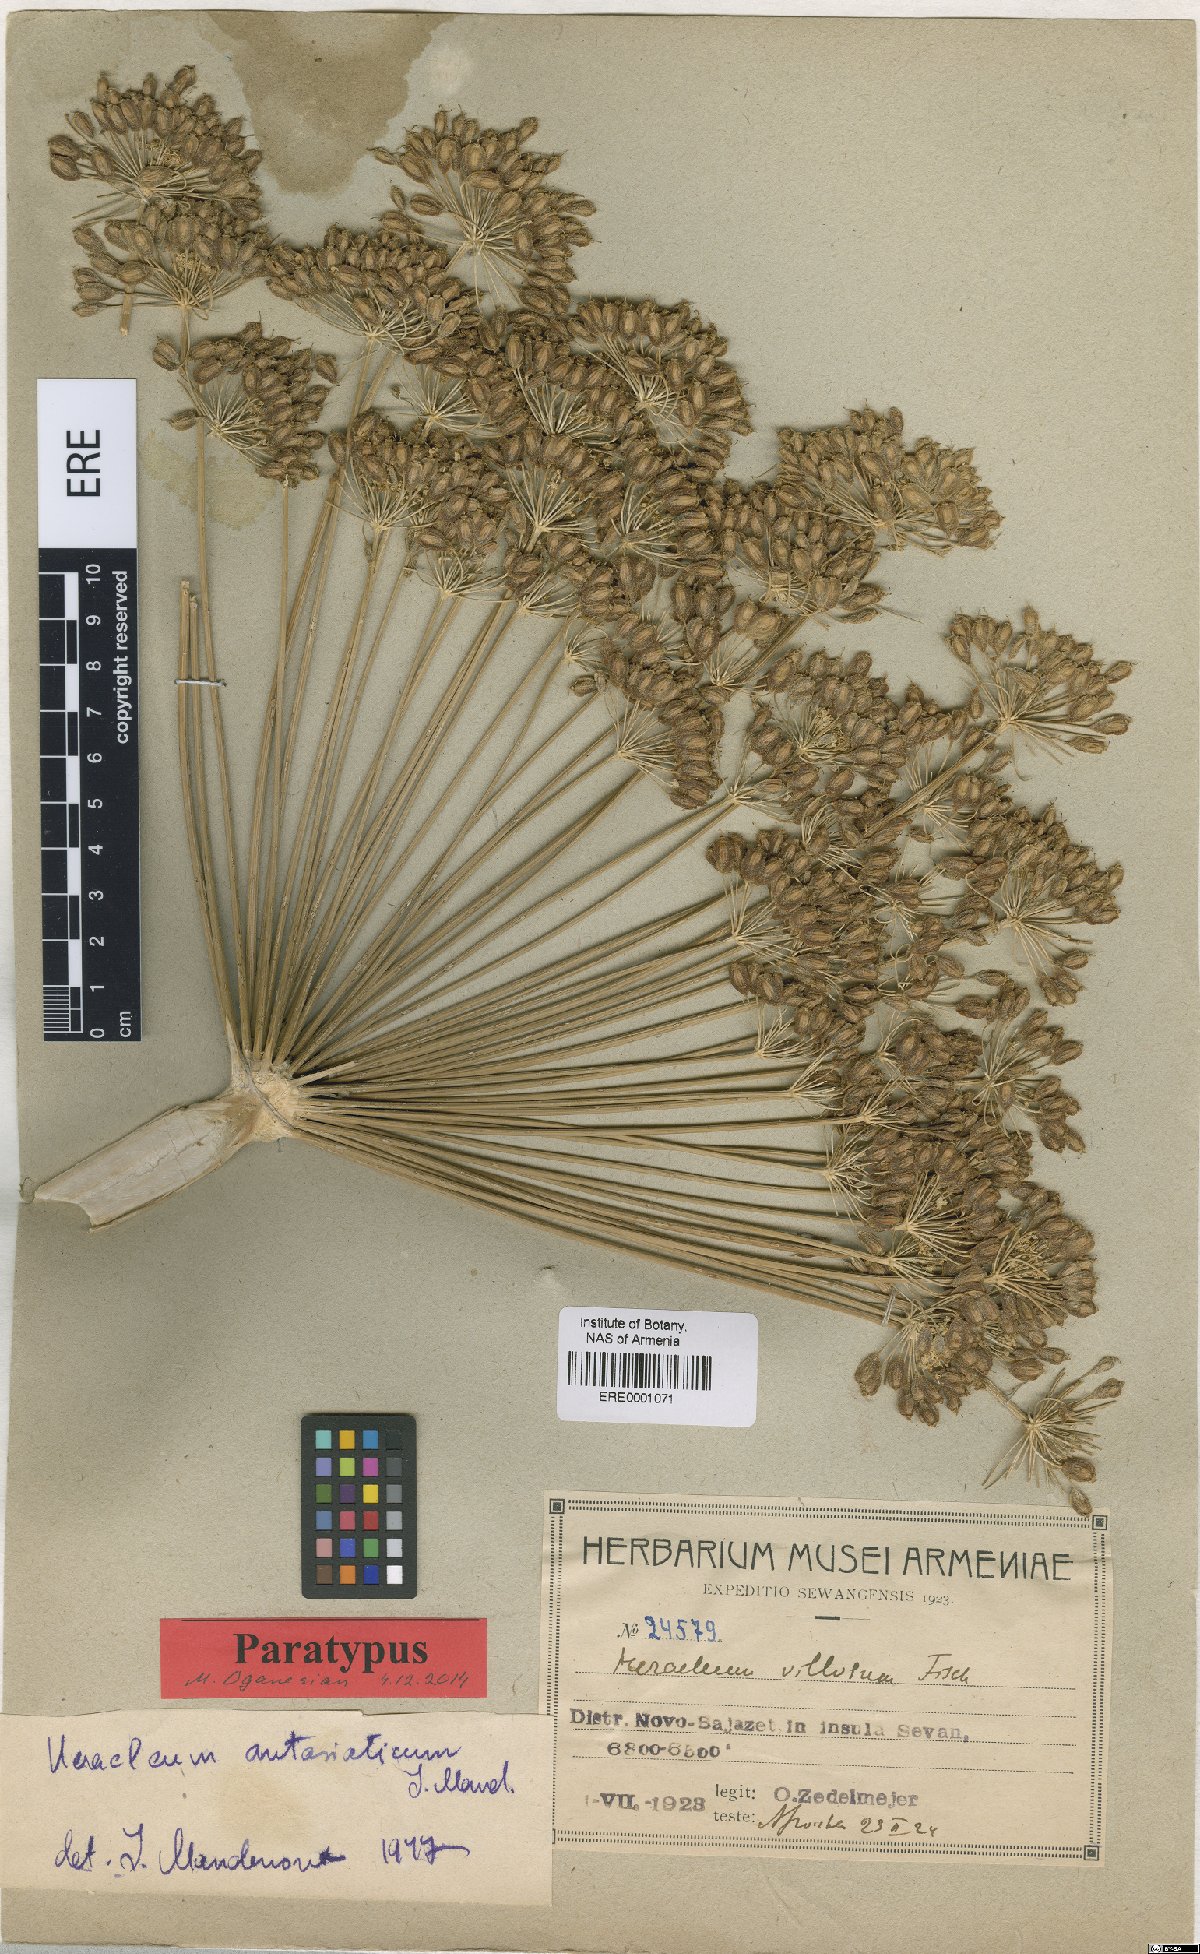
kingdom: Plantae
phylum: Tracheophyta
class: Magnoliopsida
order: Apiales
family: Apiaceae
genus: Heracleum
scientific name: Heracleum antasiaticum
